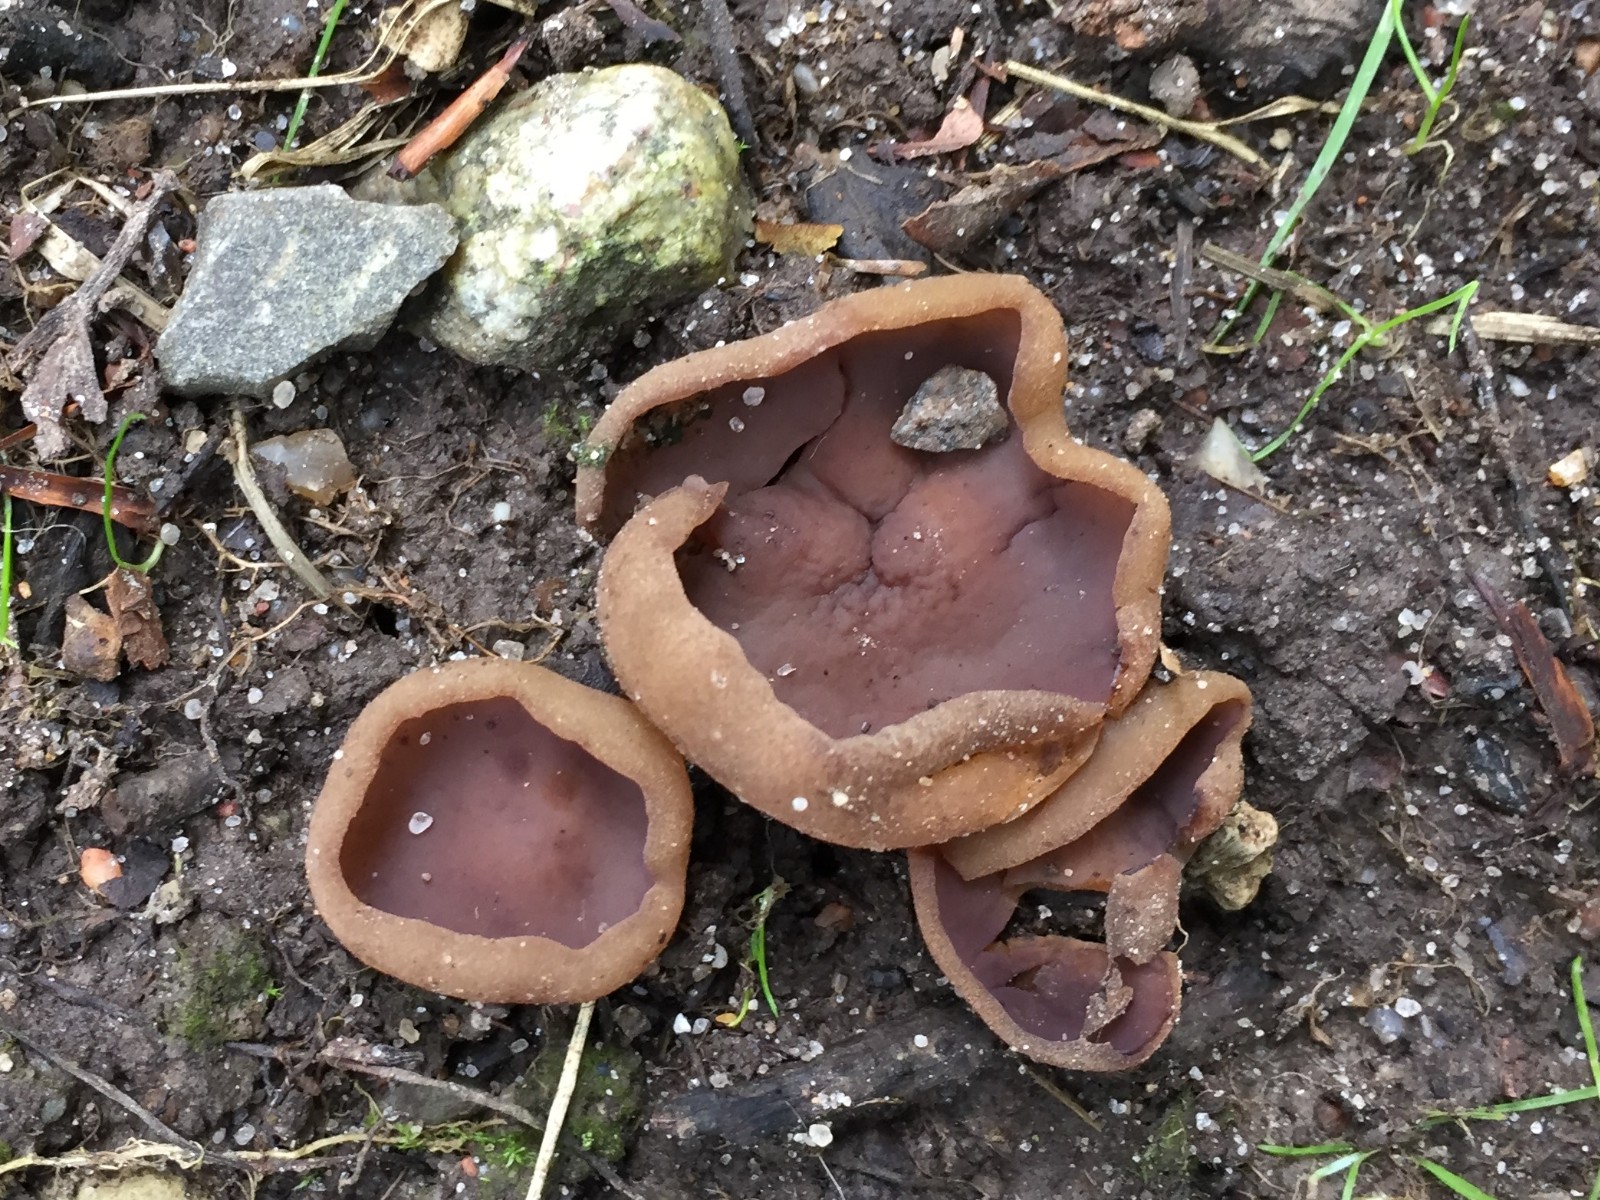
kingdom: Fungi
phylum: Ascomycota
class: Pezizomycetes
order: Pezizales
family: Pezizaceae
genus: Paragalactinia
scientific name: Paragalactinia michelii
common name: gulkødet bægersvamp
